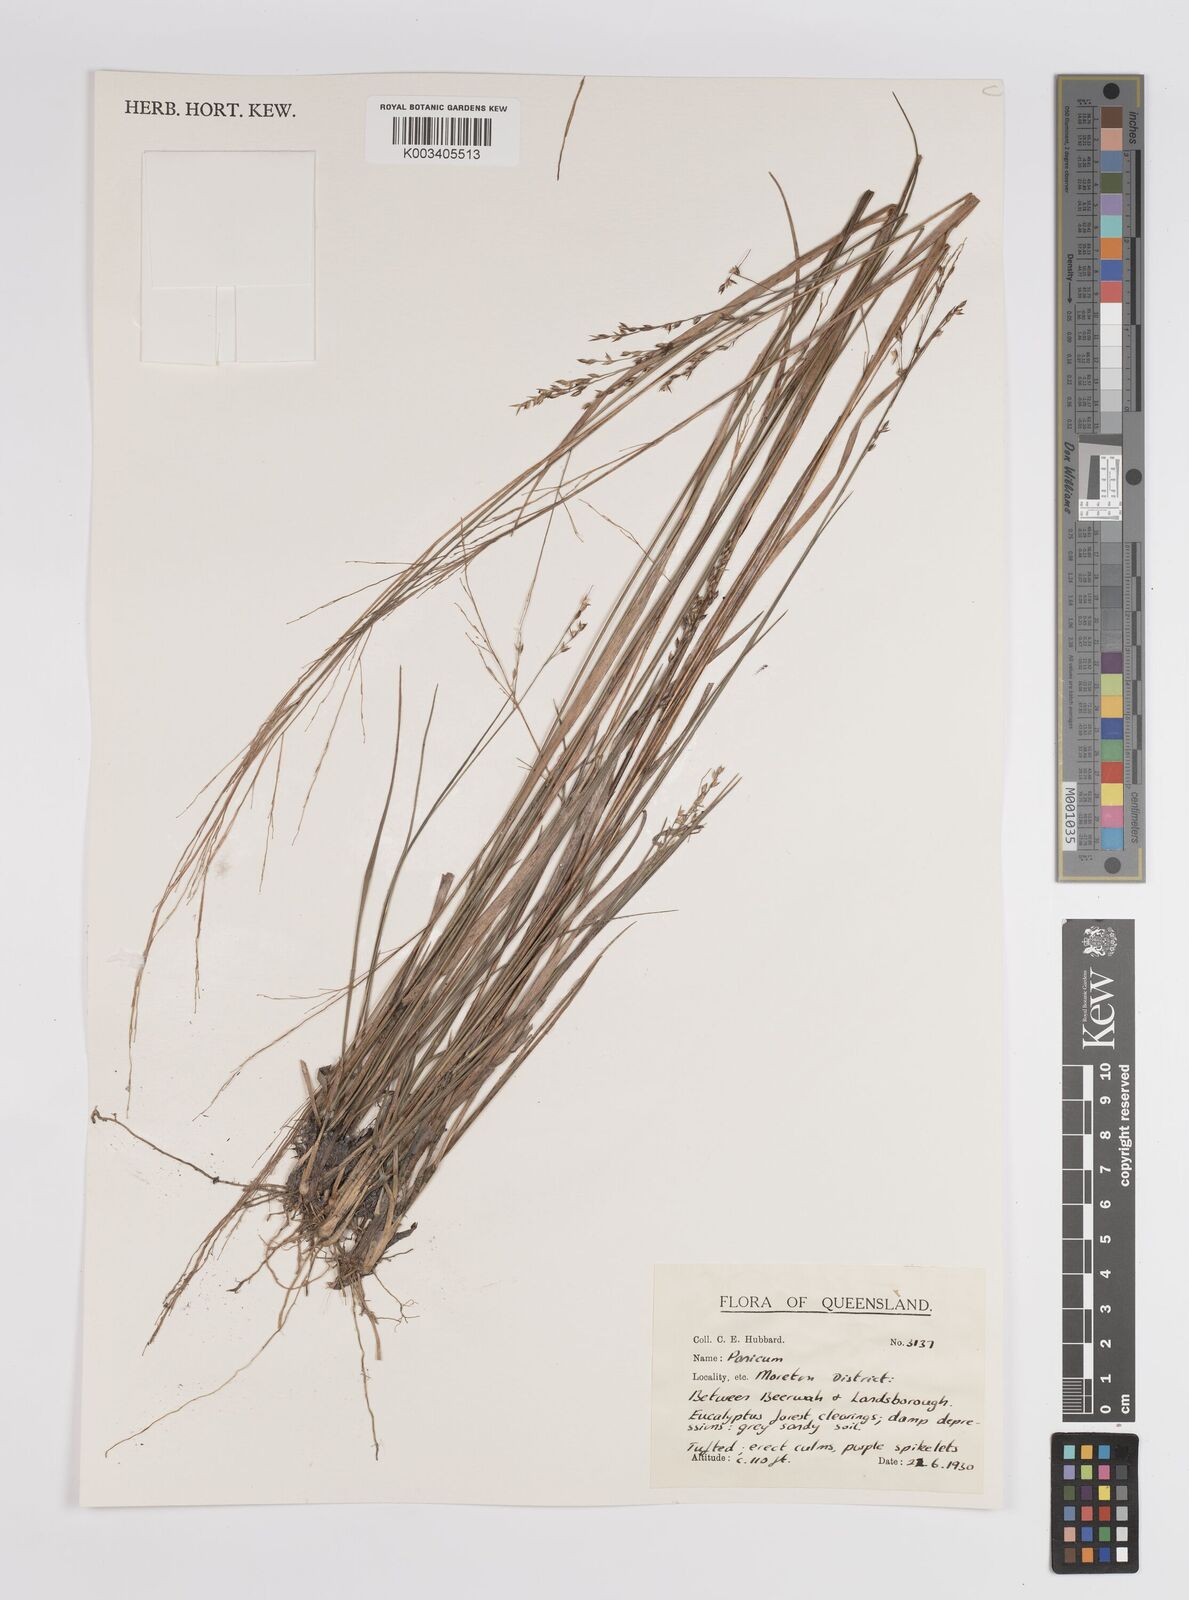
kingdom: Plantae
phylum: Tracheophyta
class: Liliopsida
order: Poales
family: Poaceae
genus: Panicum
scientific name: Panicum
